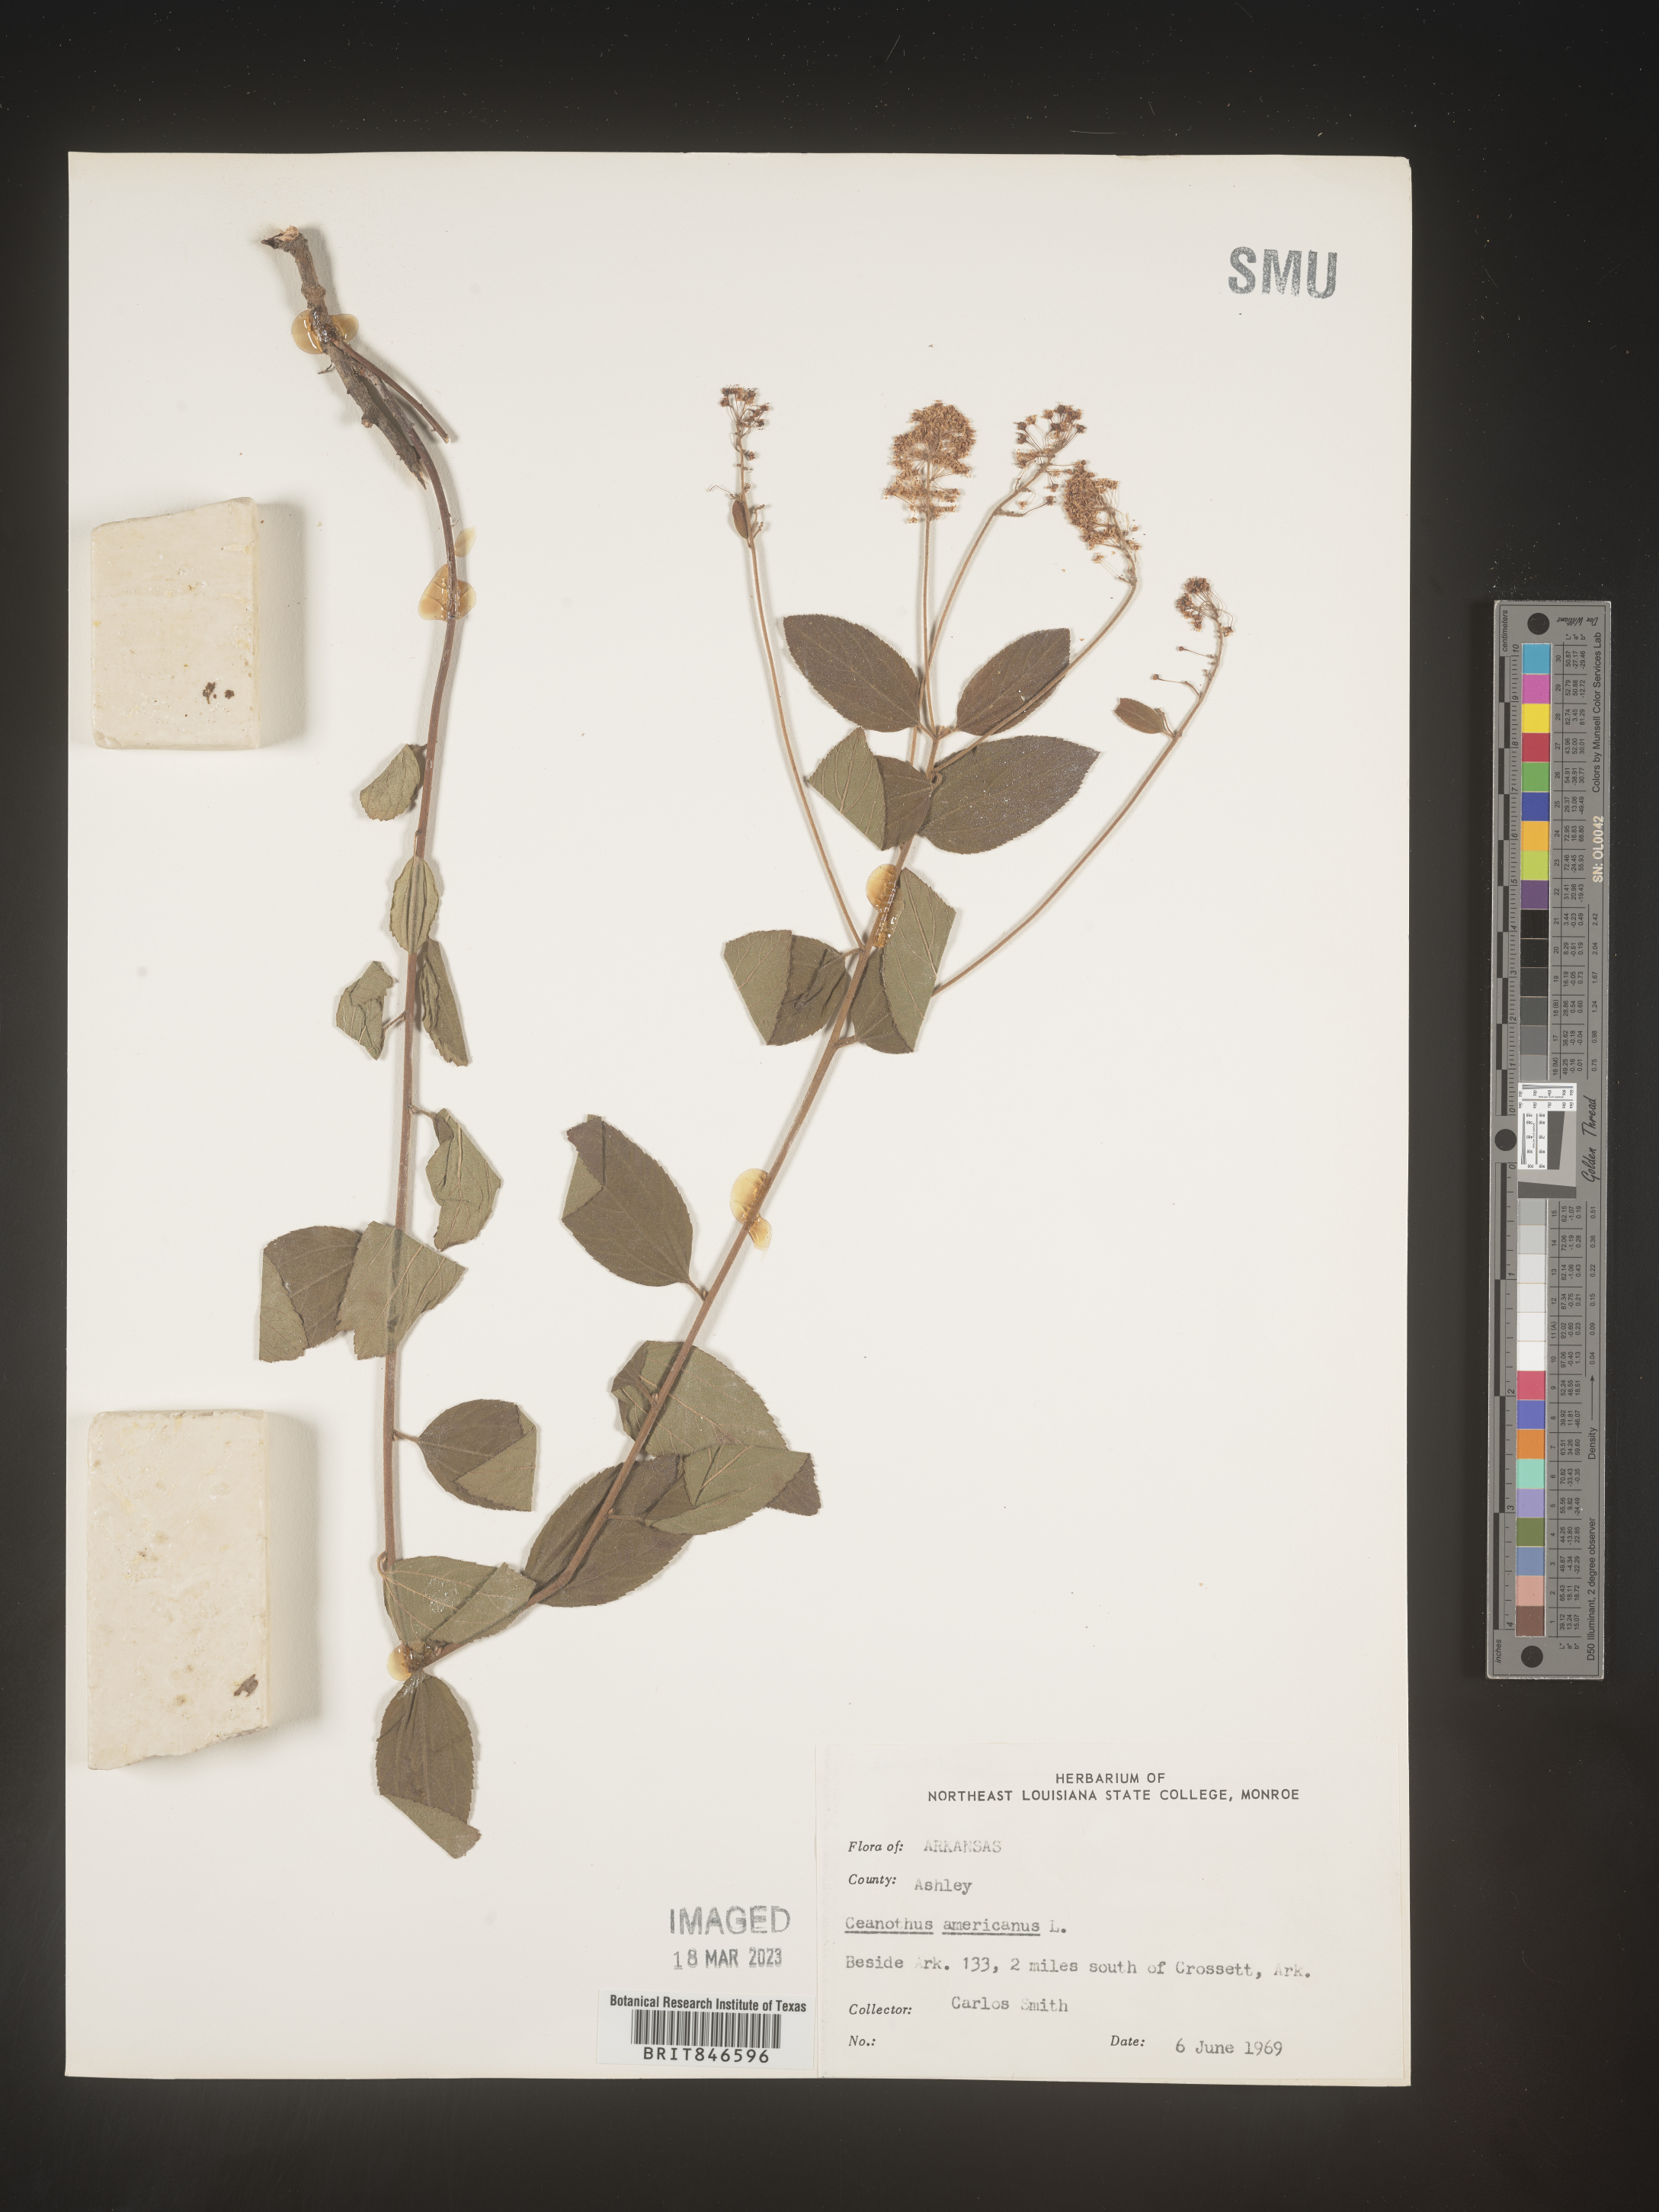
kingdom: Plantae
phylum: Tracheophyta
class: Magnoliopsida
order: Rosales
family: Rhamnaceae
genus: Ceanothus
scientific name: Ceanothus americanus
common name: Redroot
